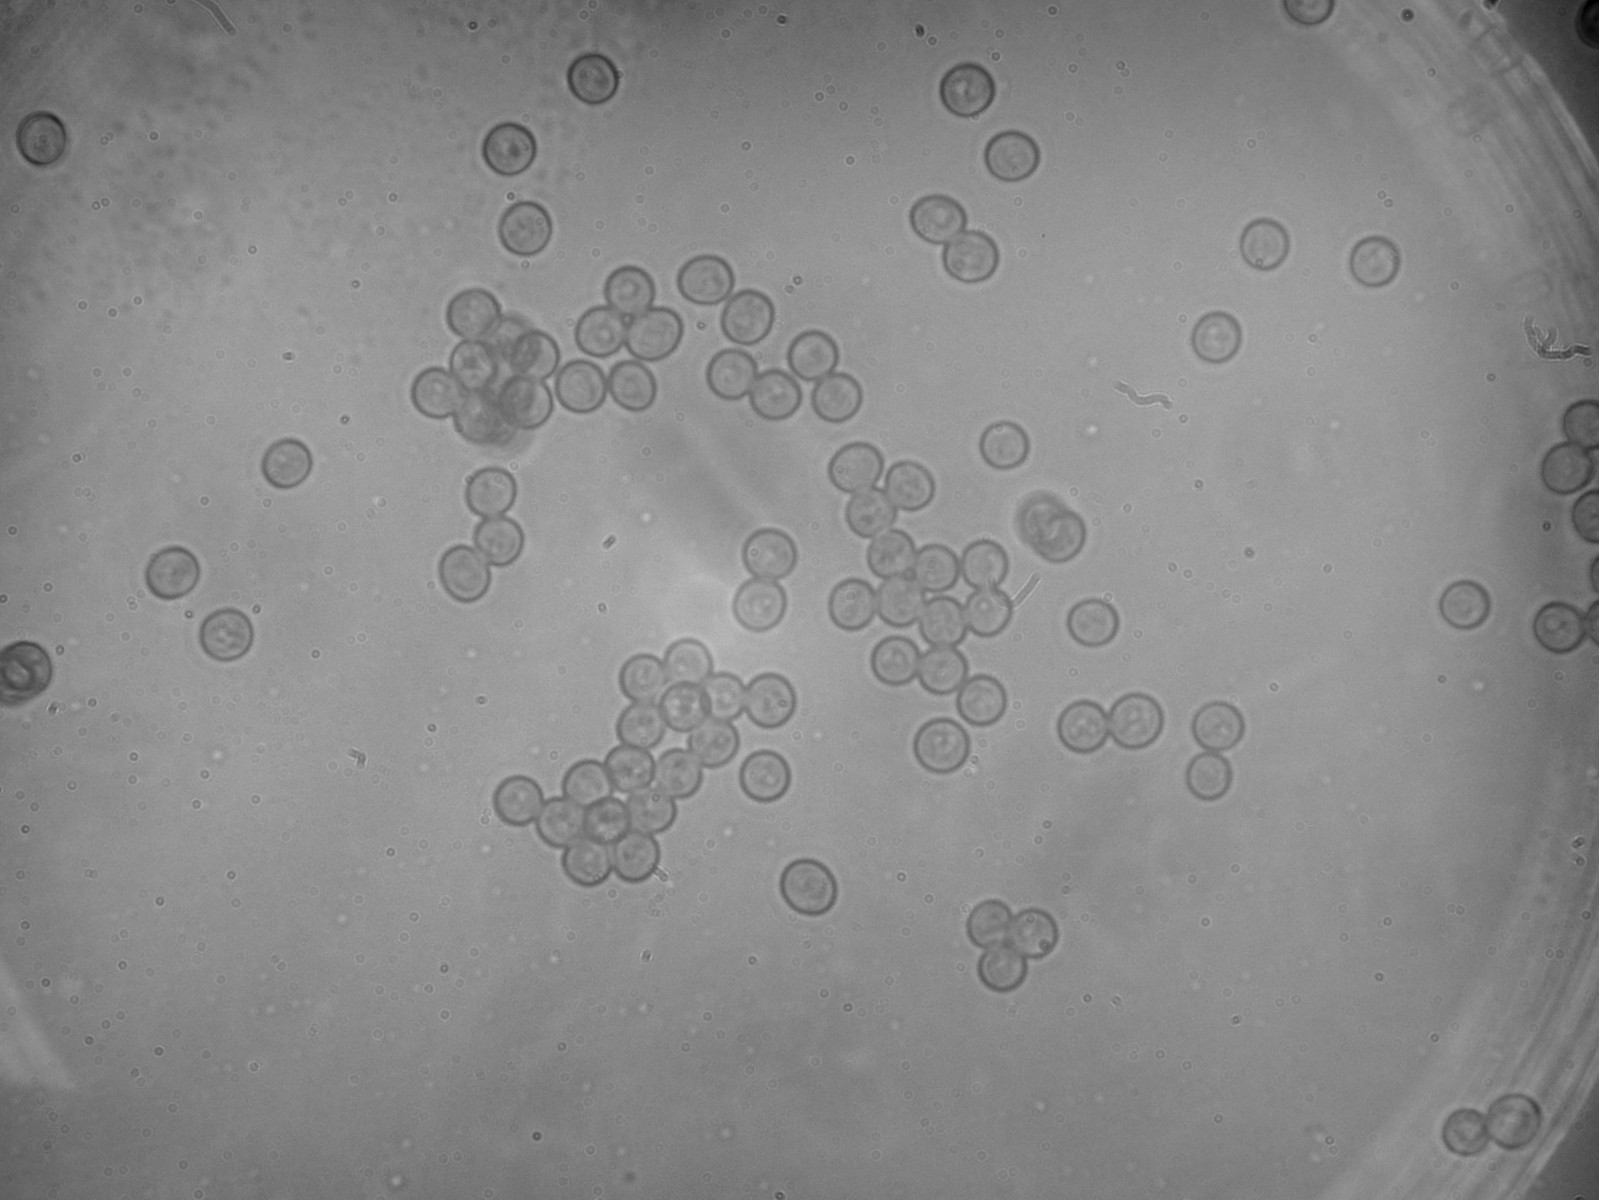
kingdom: Fungi
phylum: Basidiomycota
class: Ustilaginomycetes
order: Ustilaginales
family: Ustilaginaceae
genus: Ustilago
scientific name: Ustilago filiformis
